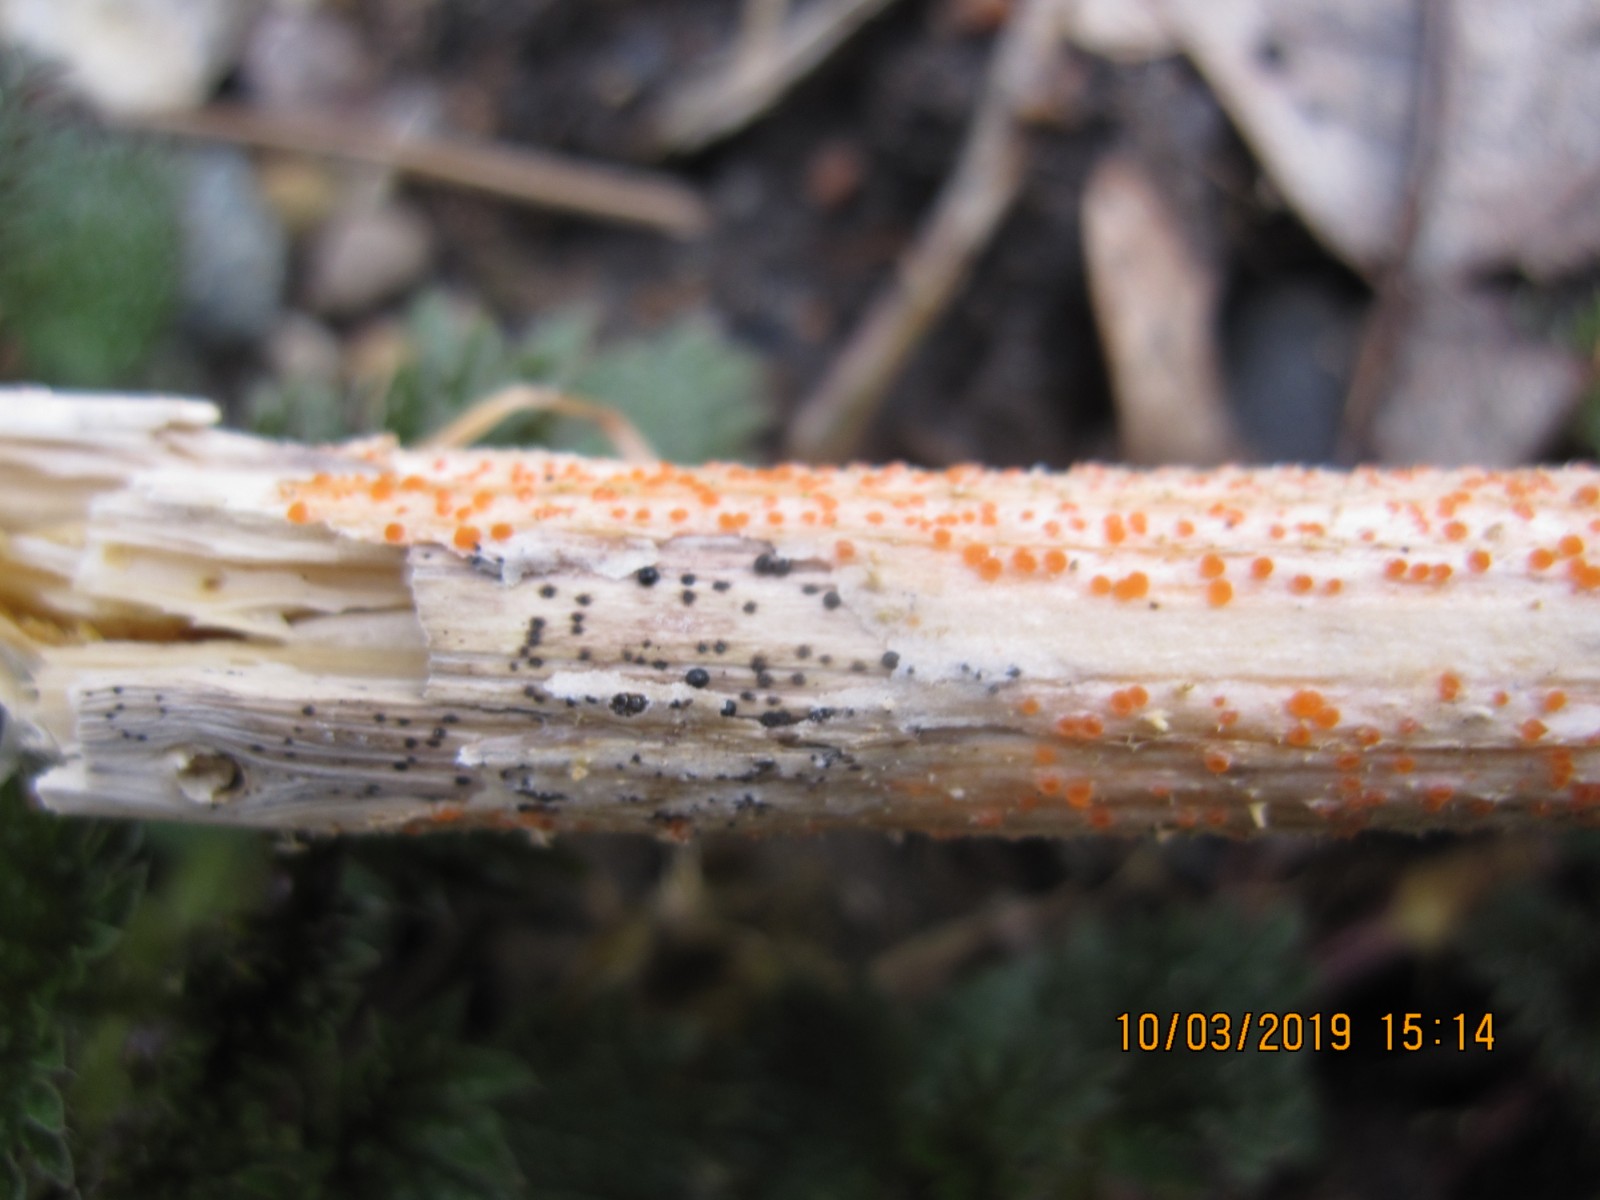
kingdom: Fungi
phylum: Ascomycota
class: Dothideomycetes
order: Pleosporales
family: Leptosphaeriaceae
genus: Leptosphaeria
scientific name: Leptosphaeria acuta
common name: spids kulkegle
